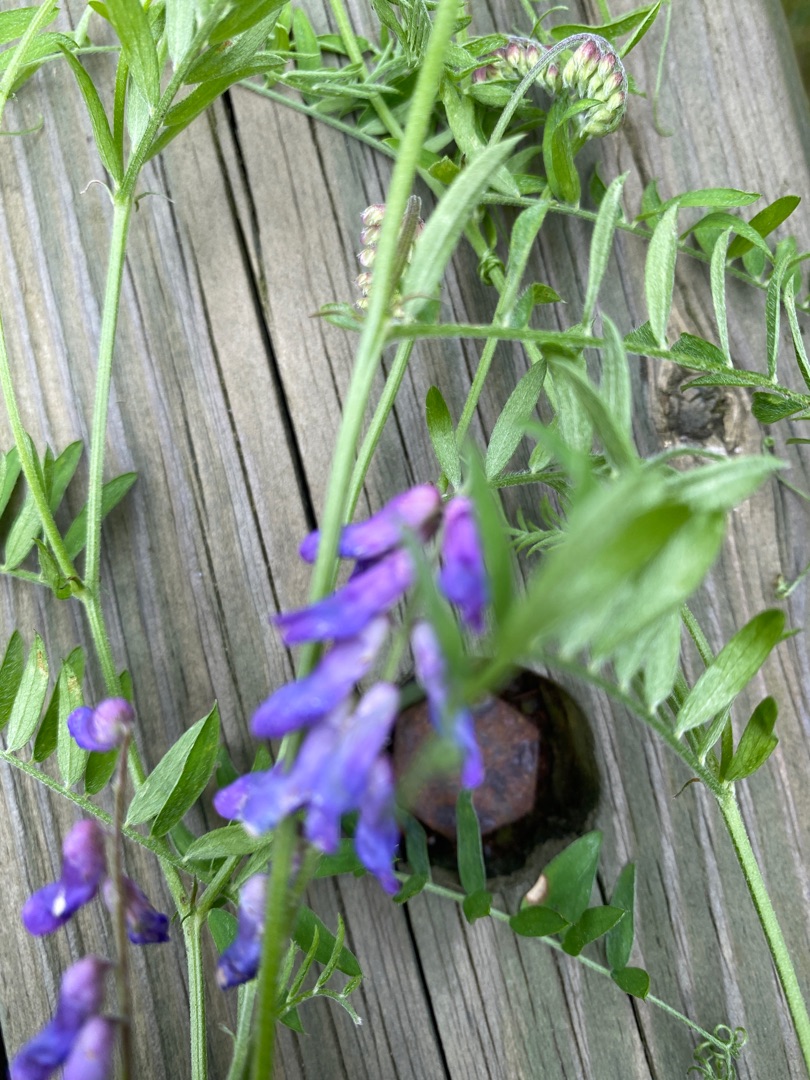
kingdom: Plantae
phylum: Tracheophyta
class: Magnoliopsida
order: Fabales
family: Fabaceae
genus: Vicia
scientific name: Vicia cracca
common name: Muse-vikke
